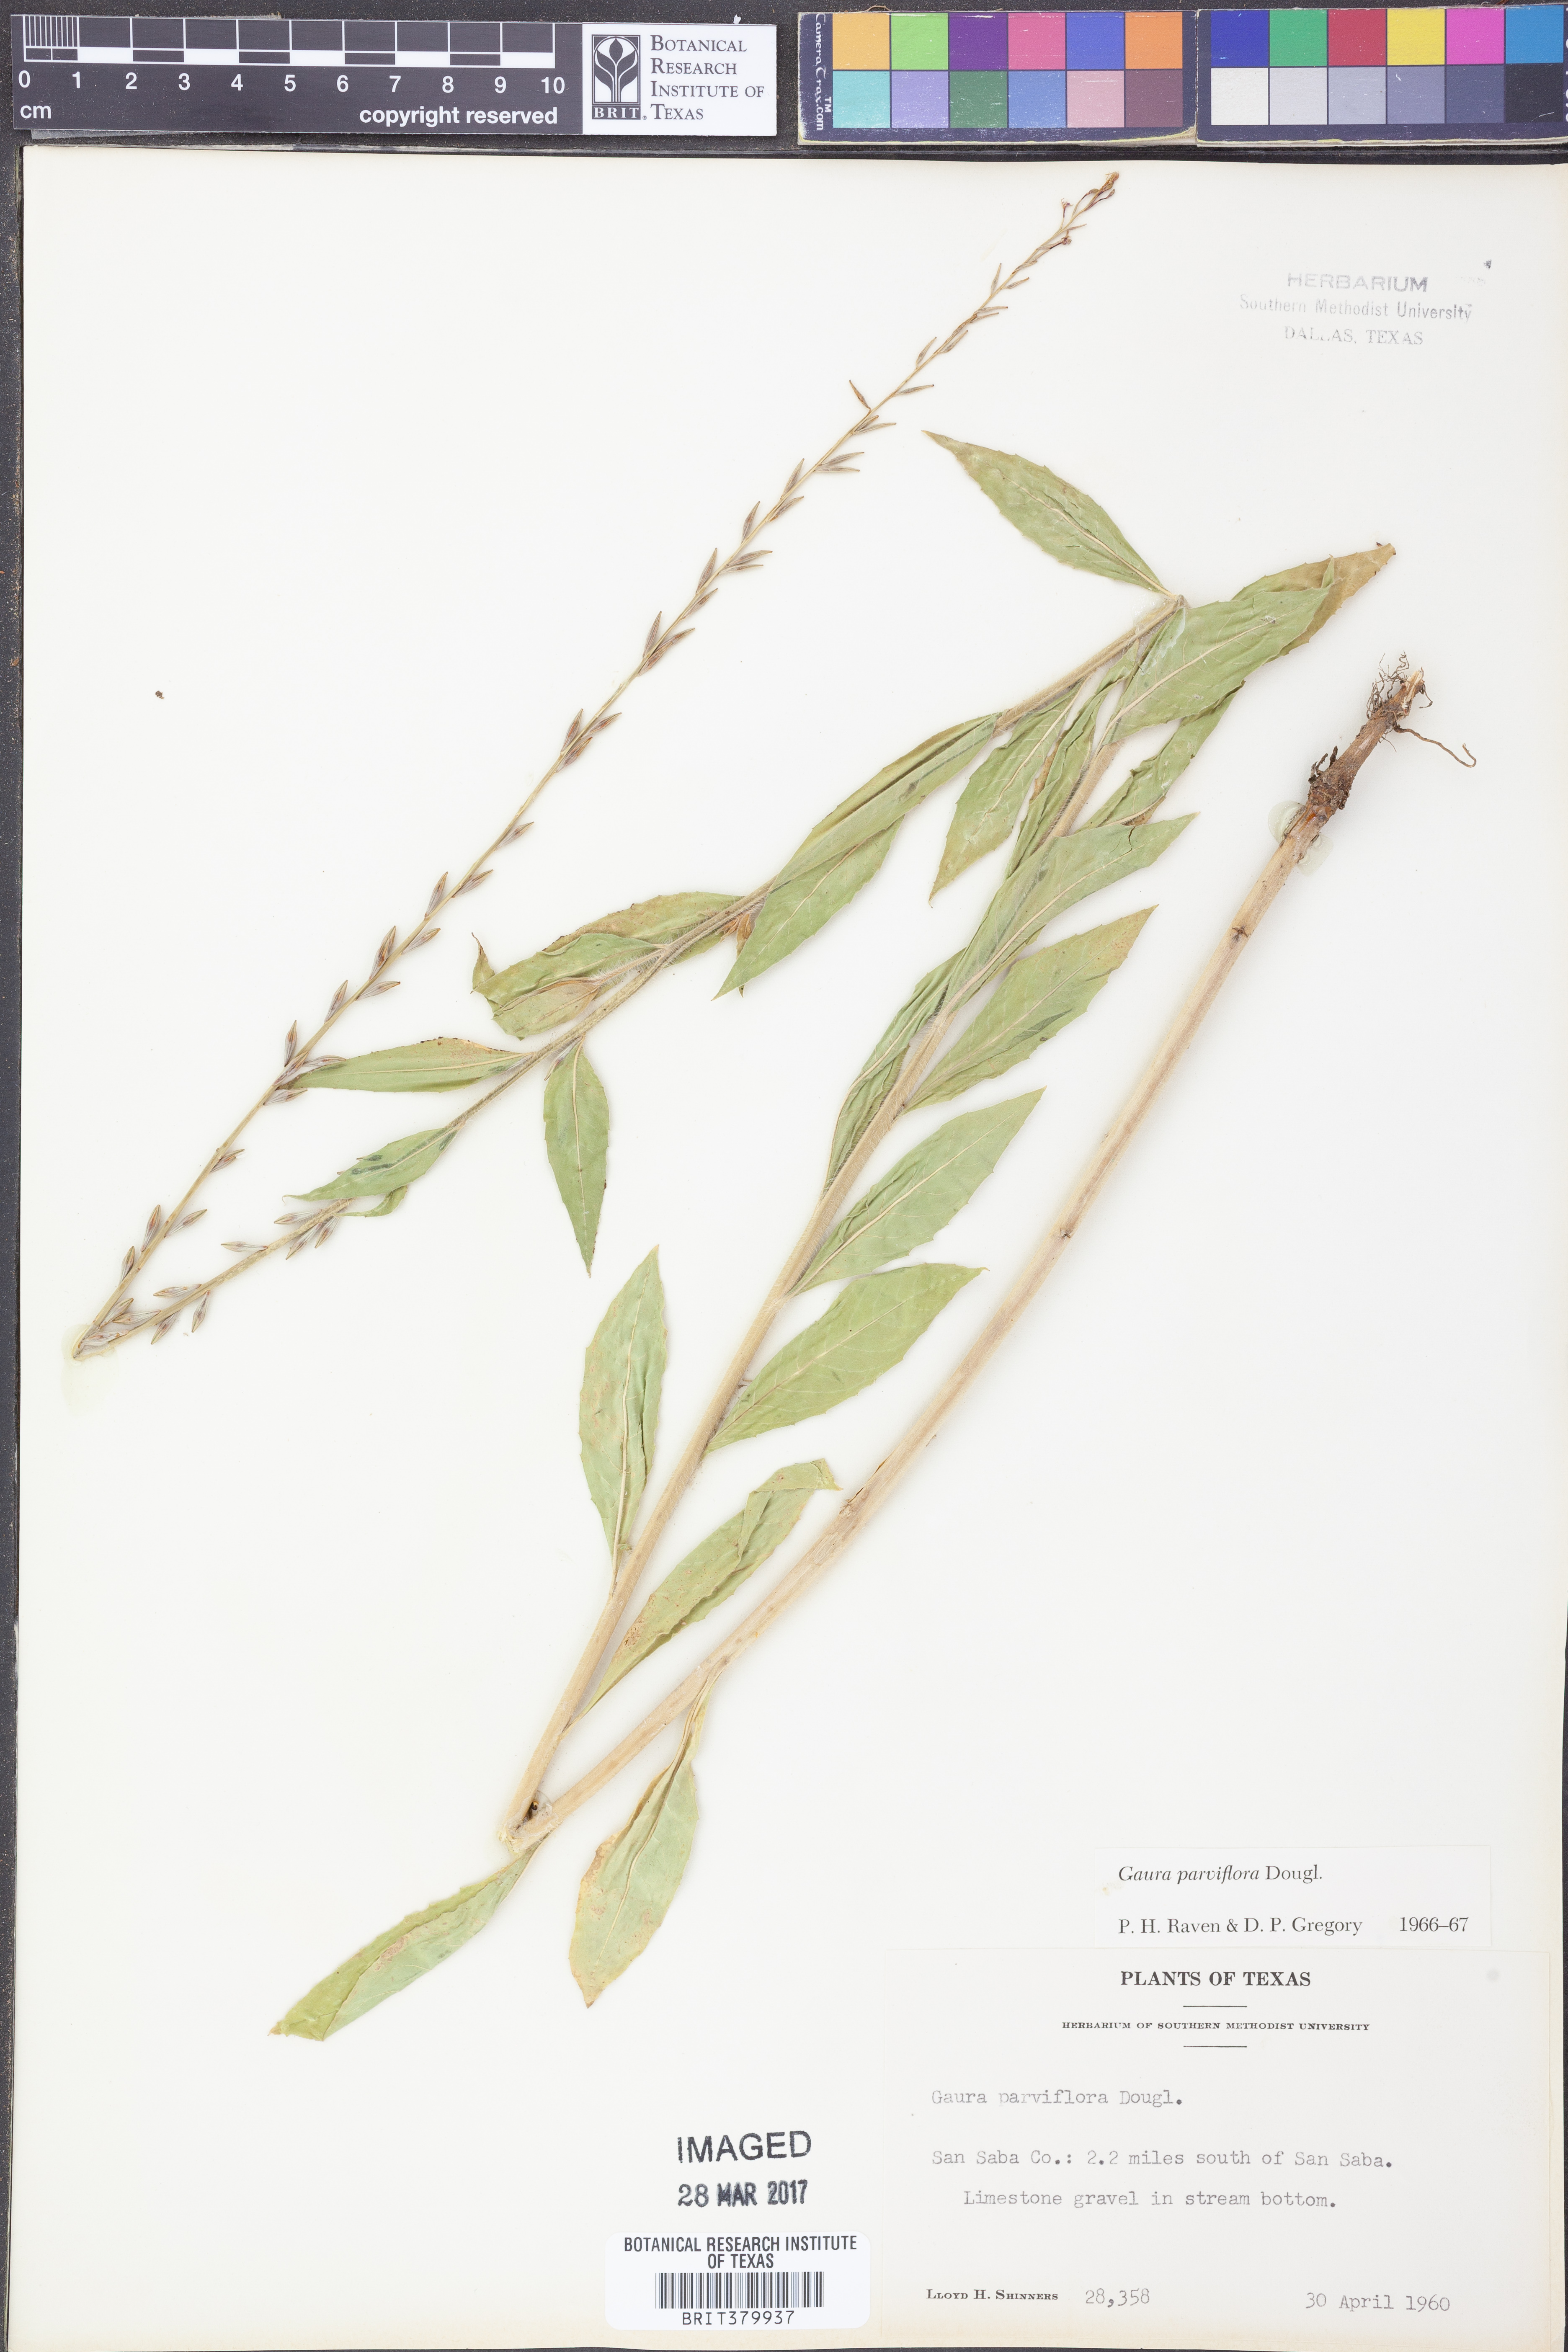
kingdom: Plantae
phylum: Tracheophyta
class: Magnoliopsida
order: Myrtales
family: Onagraceae
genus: Oenothera
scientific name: Oenothera curtiflora
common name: Velvetweed
